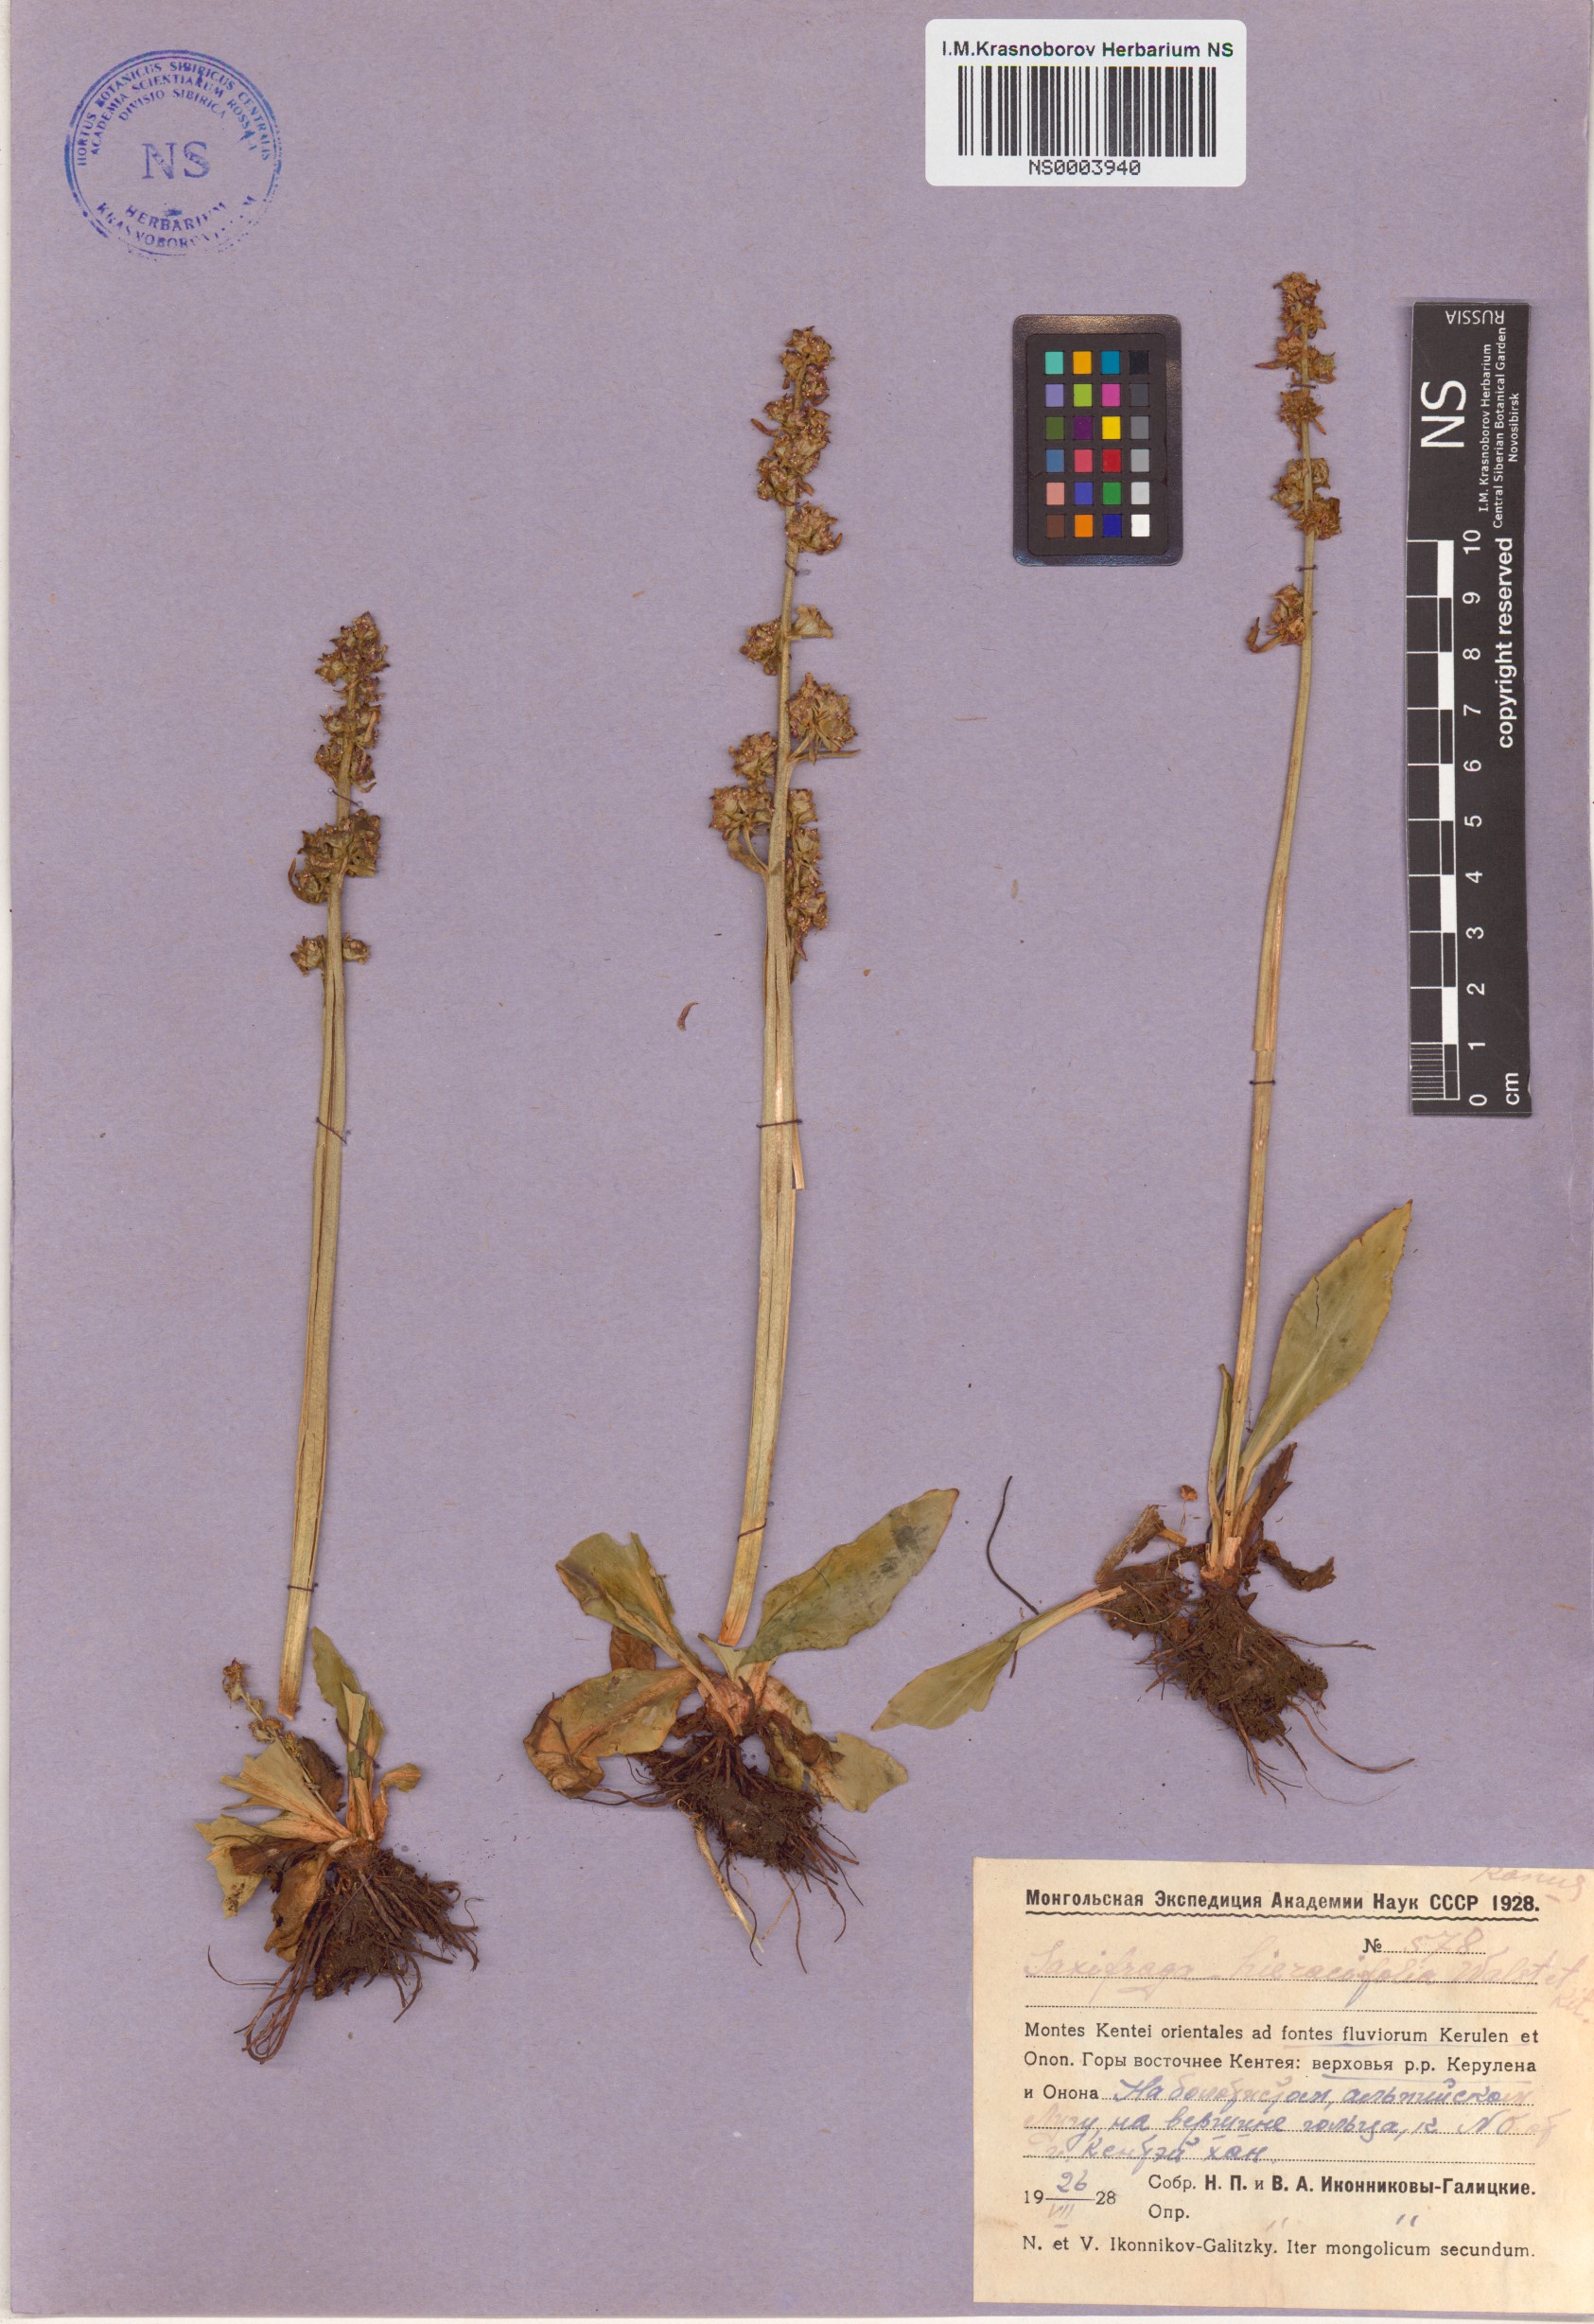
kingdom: Plantae
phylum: Tracheophyta
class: Magnoliopsida
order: Saxifragales
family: Saxifragaceae
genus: Micranthes
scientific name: Micranthes hieraciifolia
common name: Hawkweed-leaved saxifrage
